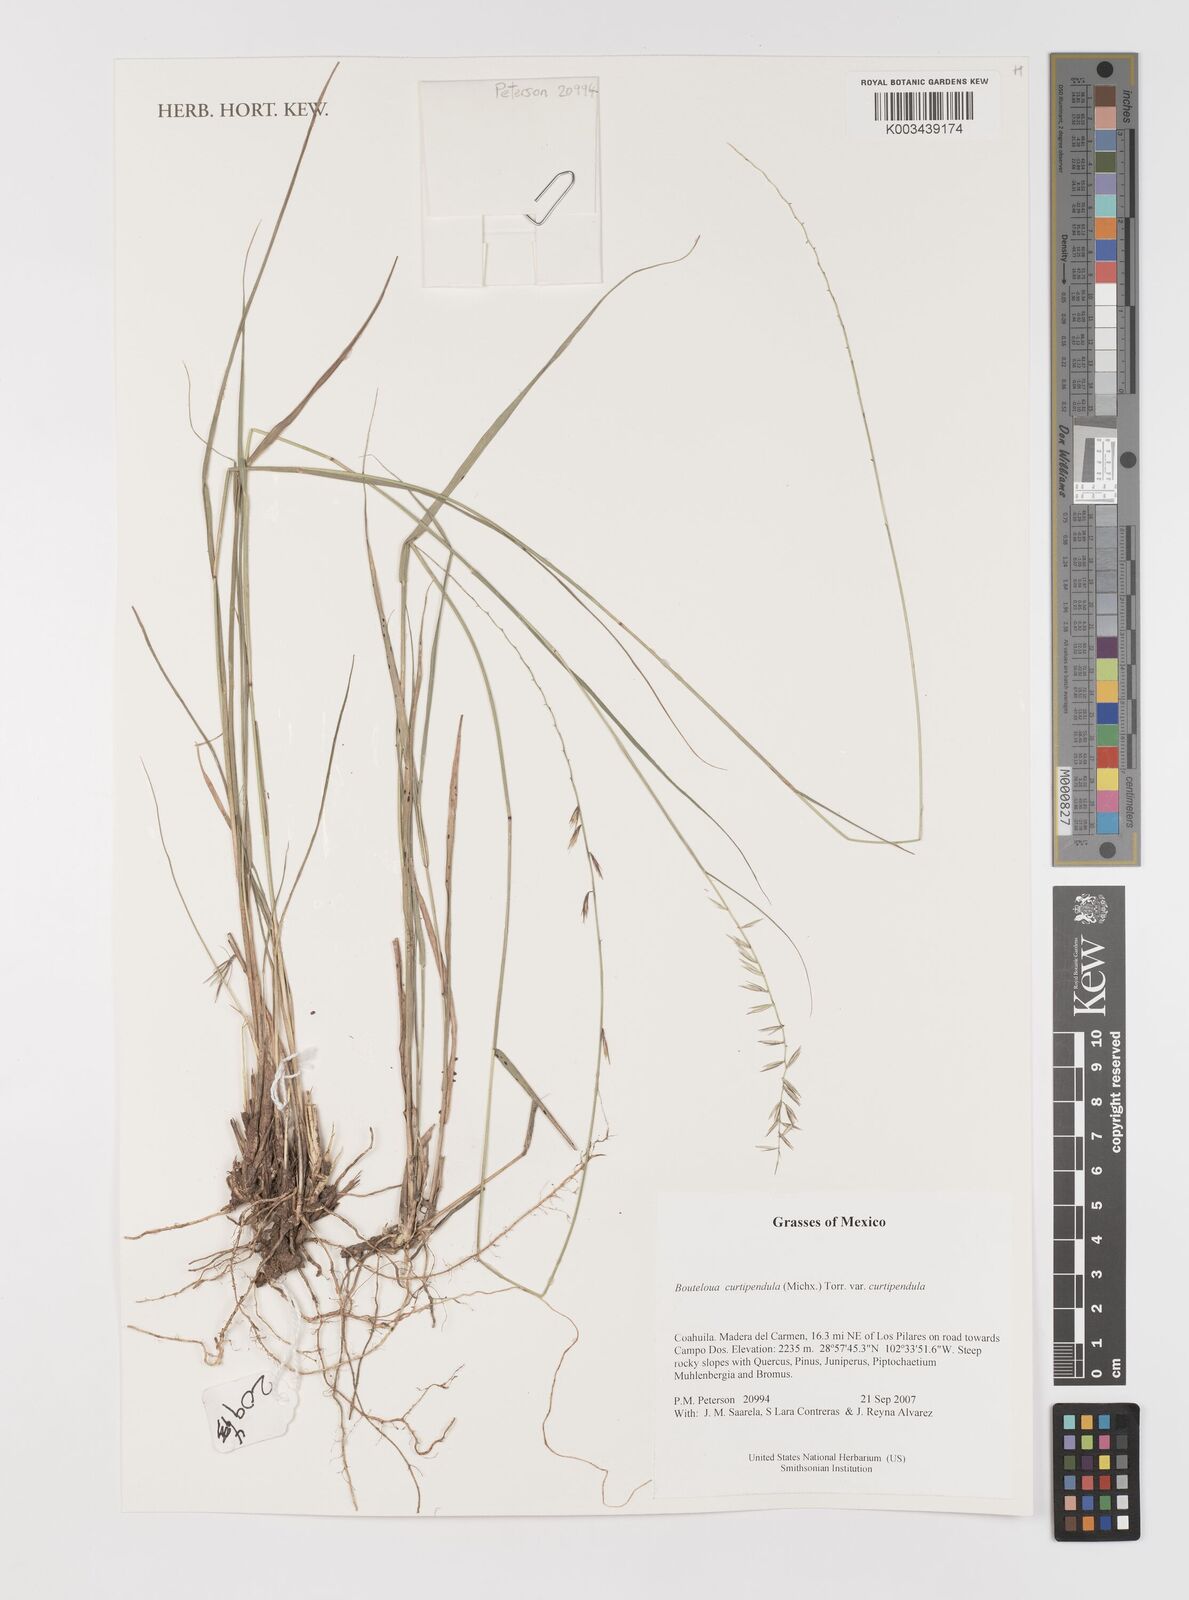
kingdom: Plantae
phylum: Tracheophyta
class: Liliopsida
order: Poales
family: Poaceae
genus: Bouteloua
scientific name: Bouteloua curtipendula
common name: Side-oats grama
